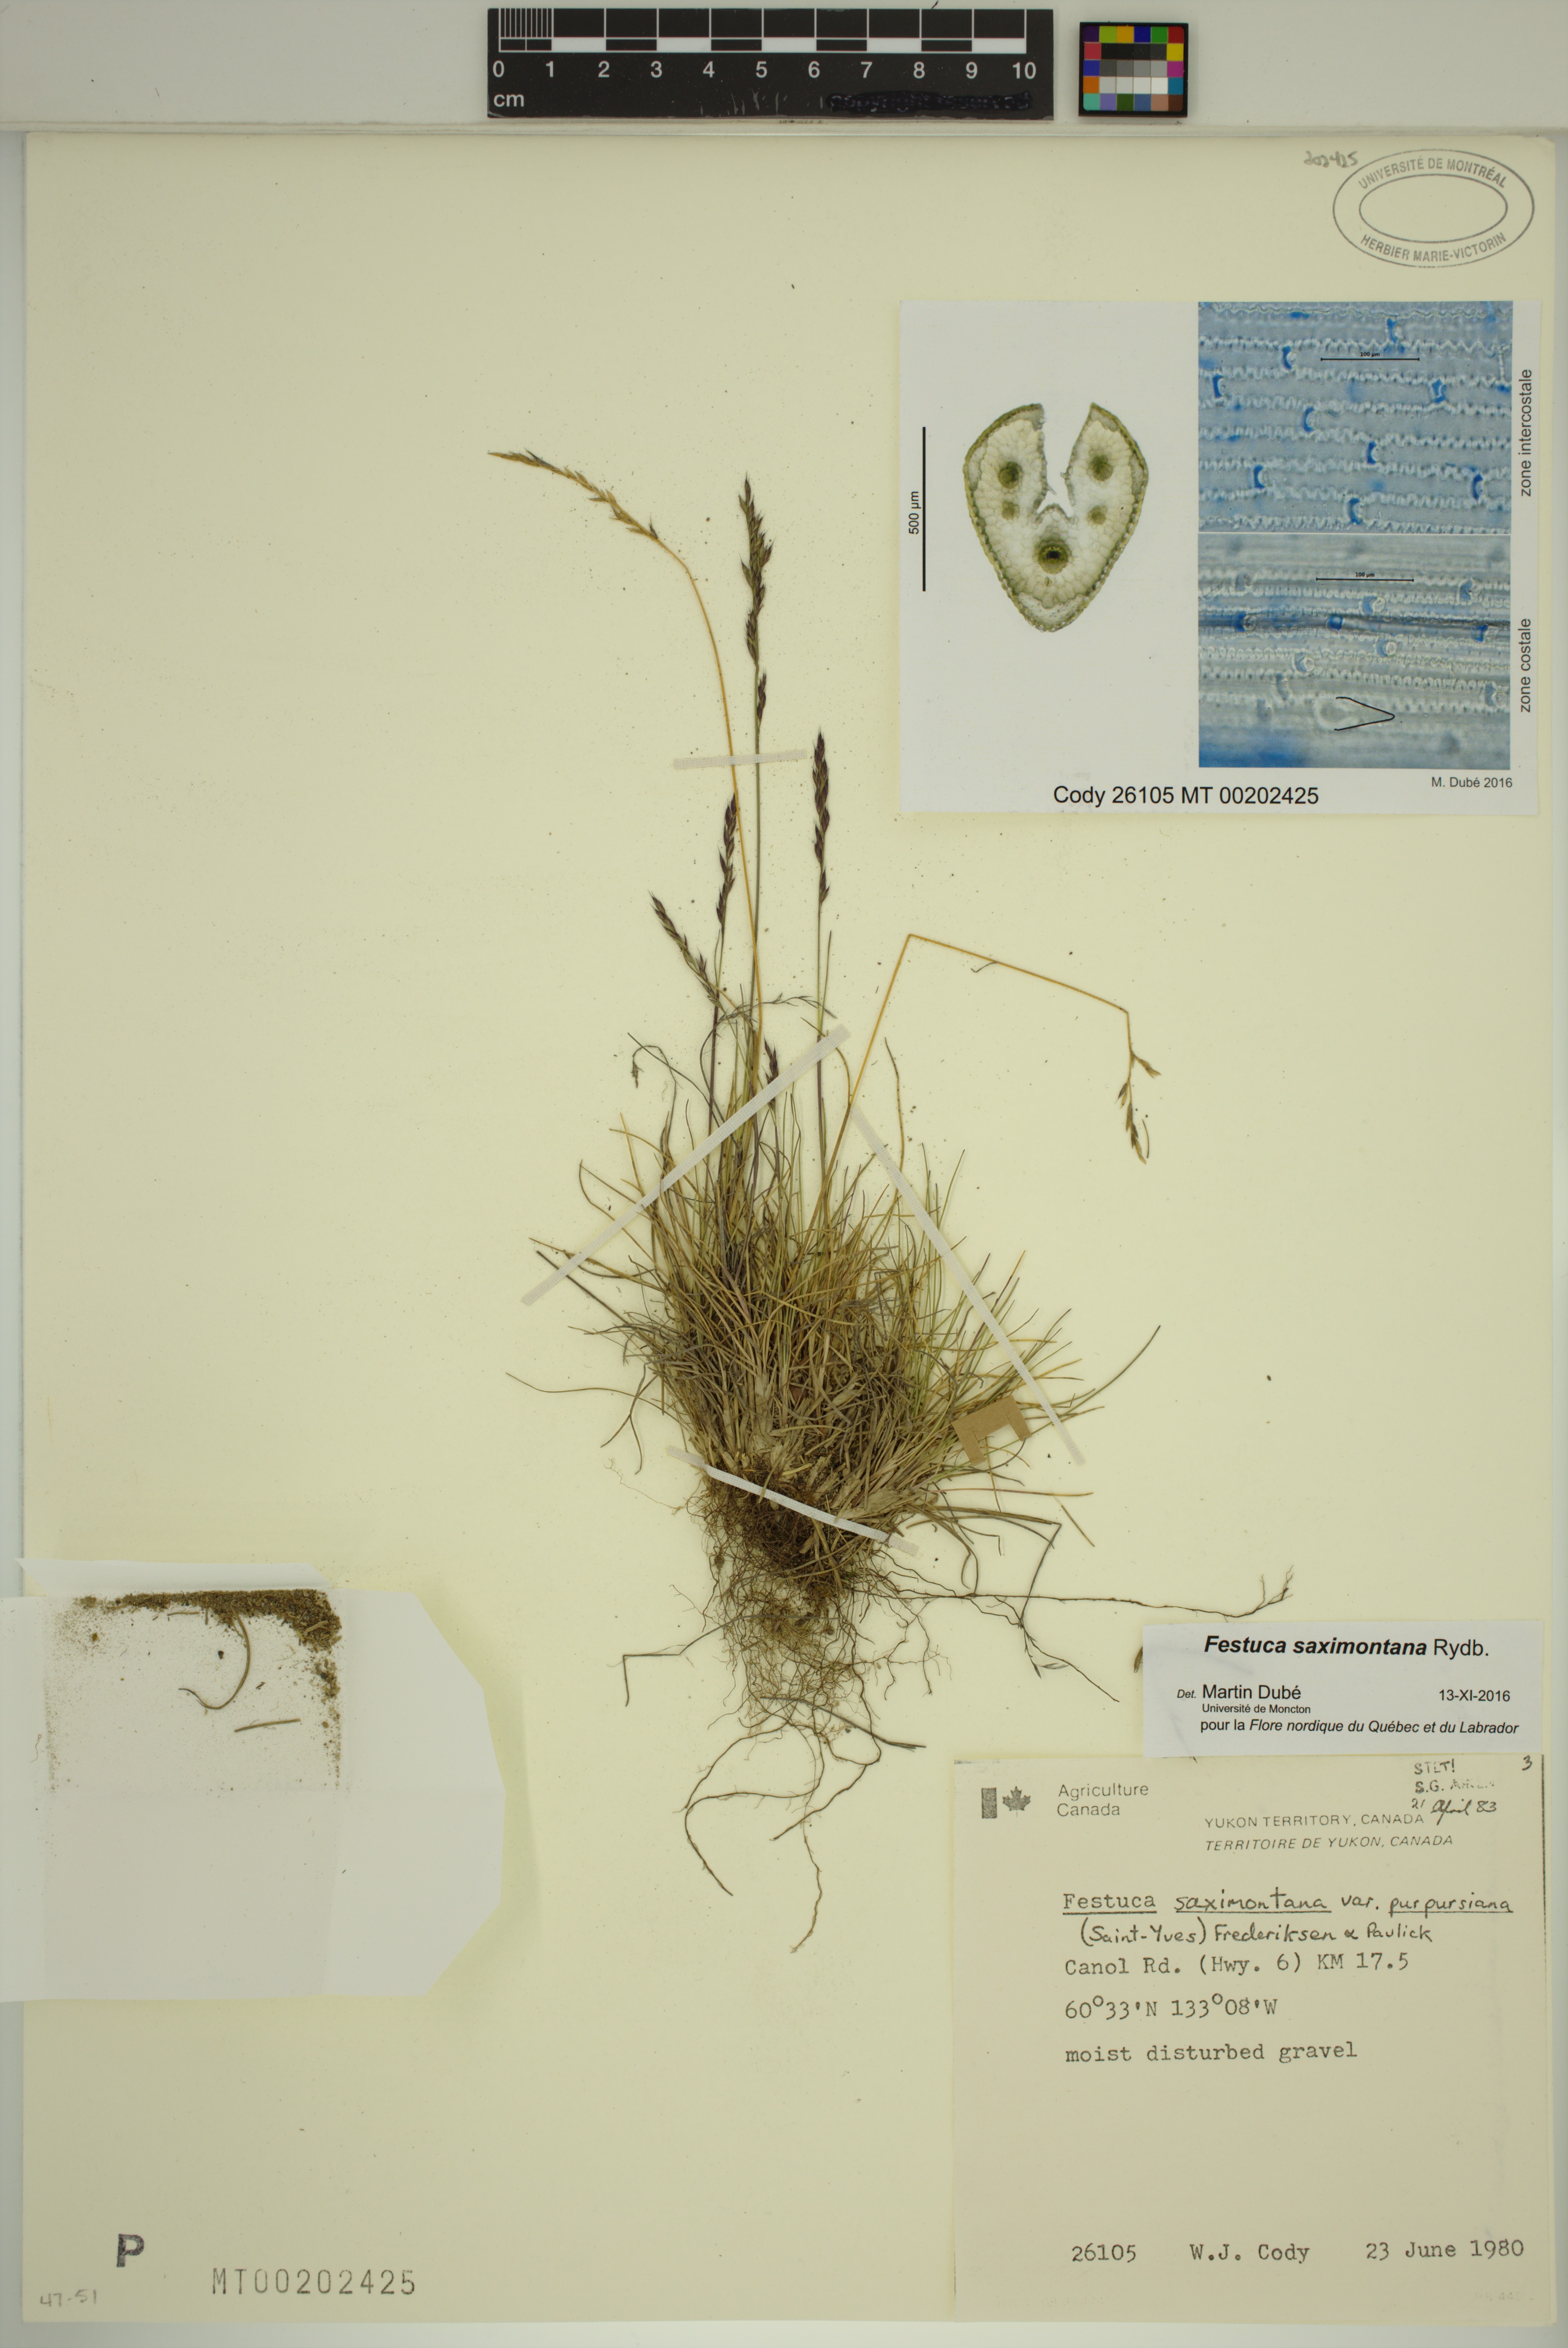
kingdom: Plantae
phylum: Tracheophyta
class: Liliopsida
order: Poales
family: Poaceae
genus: Festuca
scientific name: Festuca saximontana
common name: Mountain fescue
